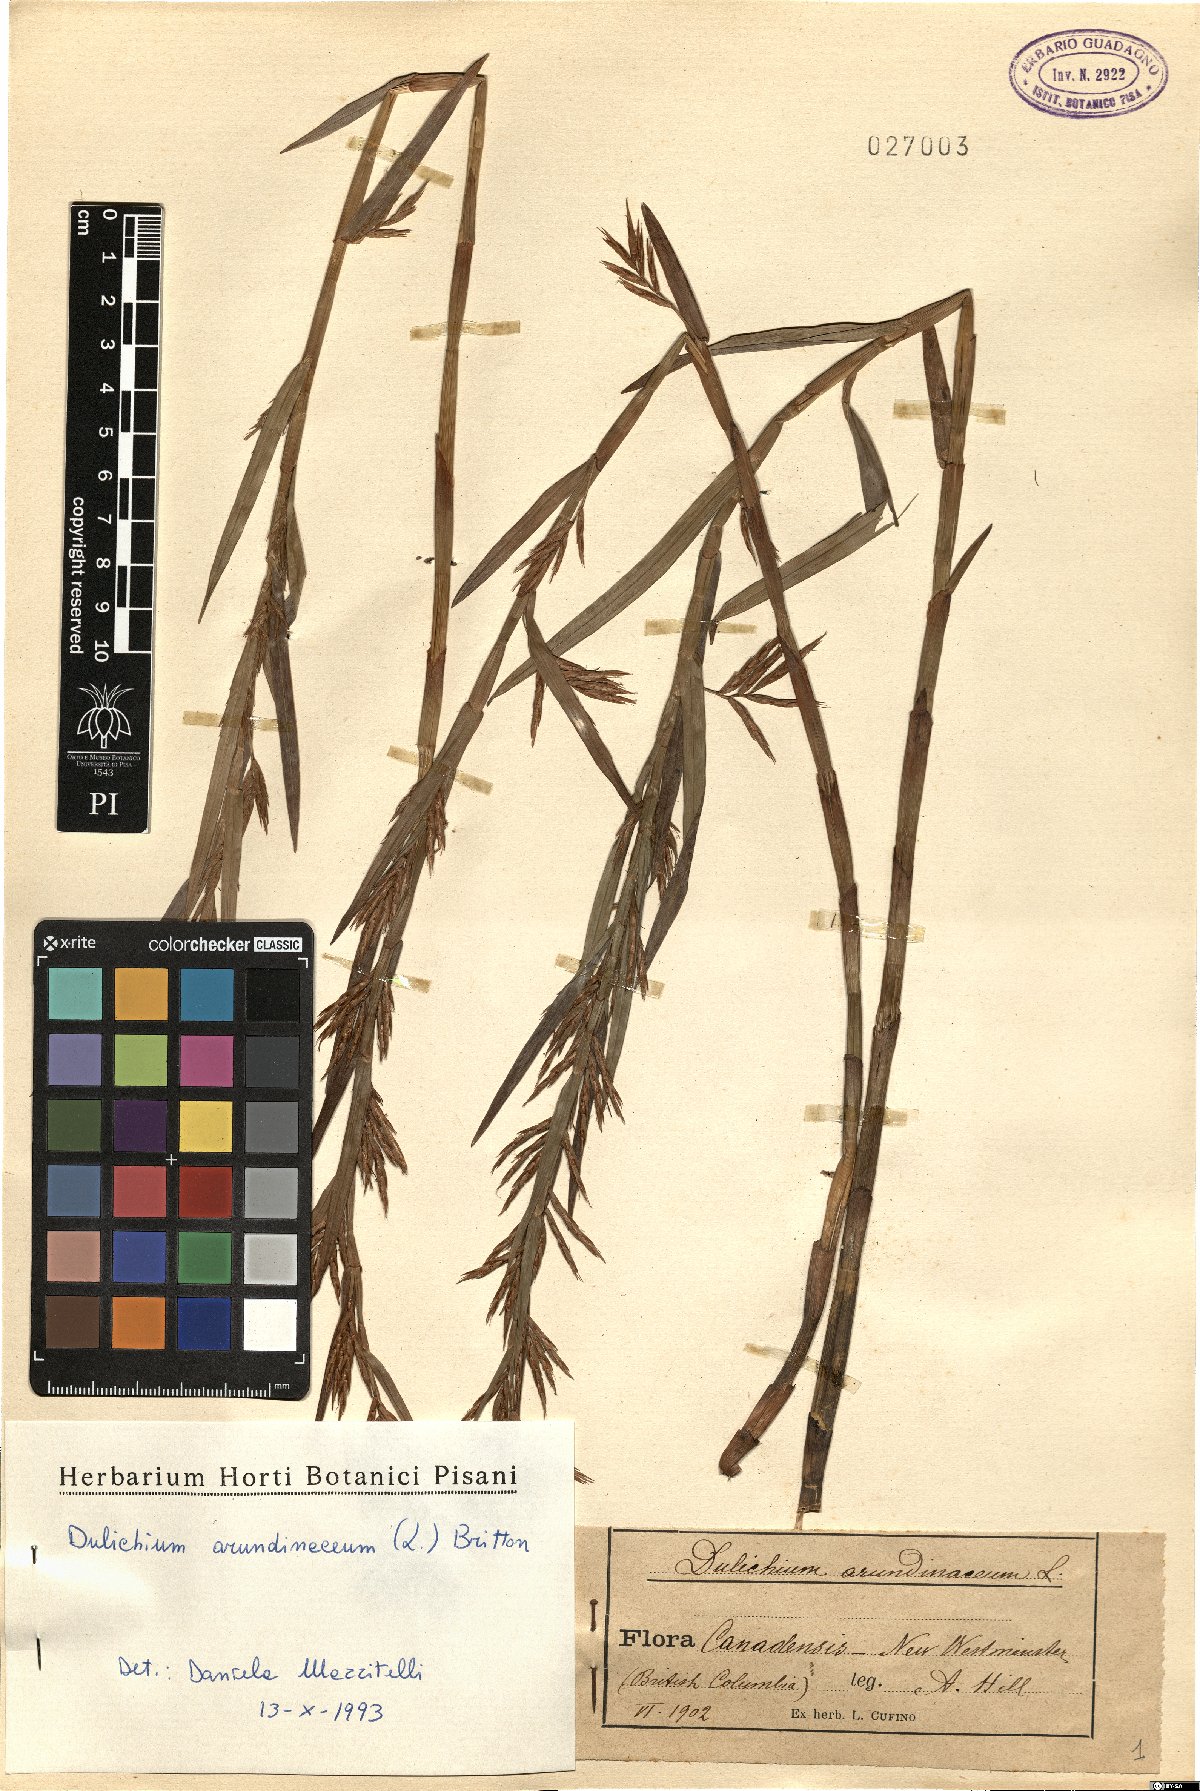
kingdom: Plantae
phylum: Tracheophyta
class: Liliopsida
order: Poales
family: Cyperaceae
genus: Dulichium
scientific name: Dulichium arundinaceum
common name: Three-way sedge
